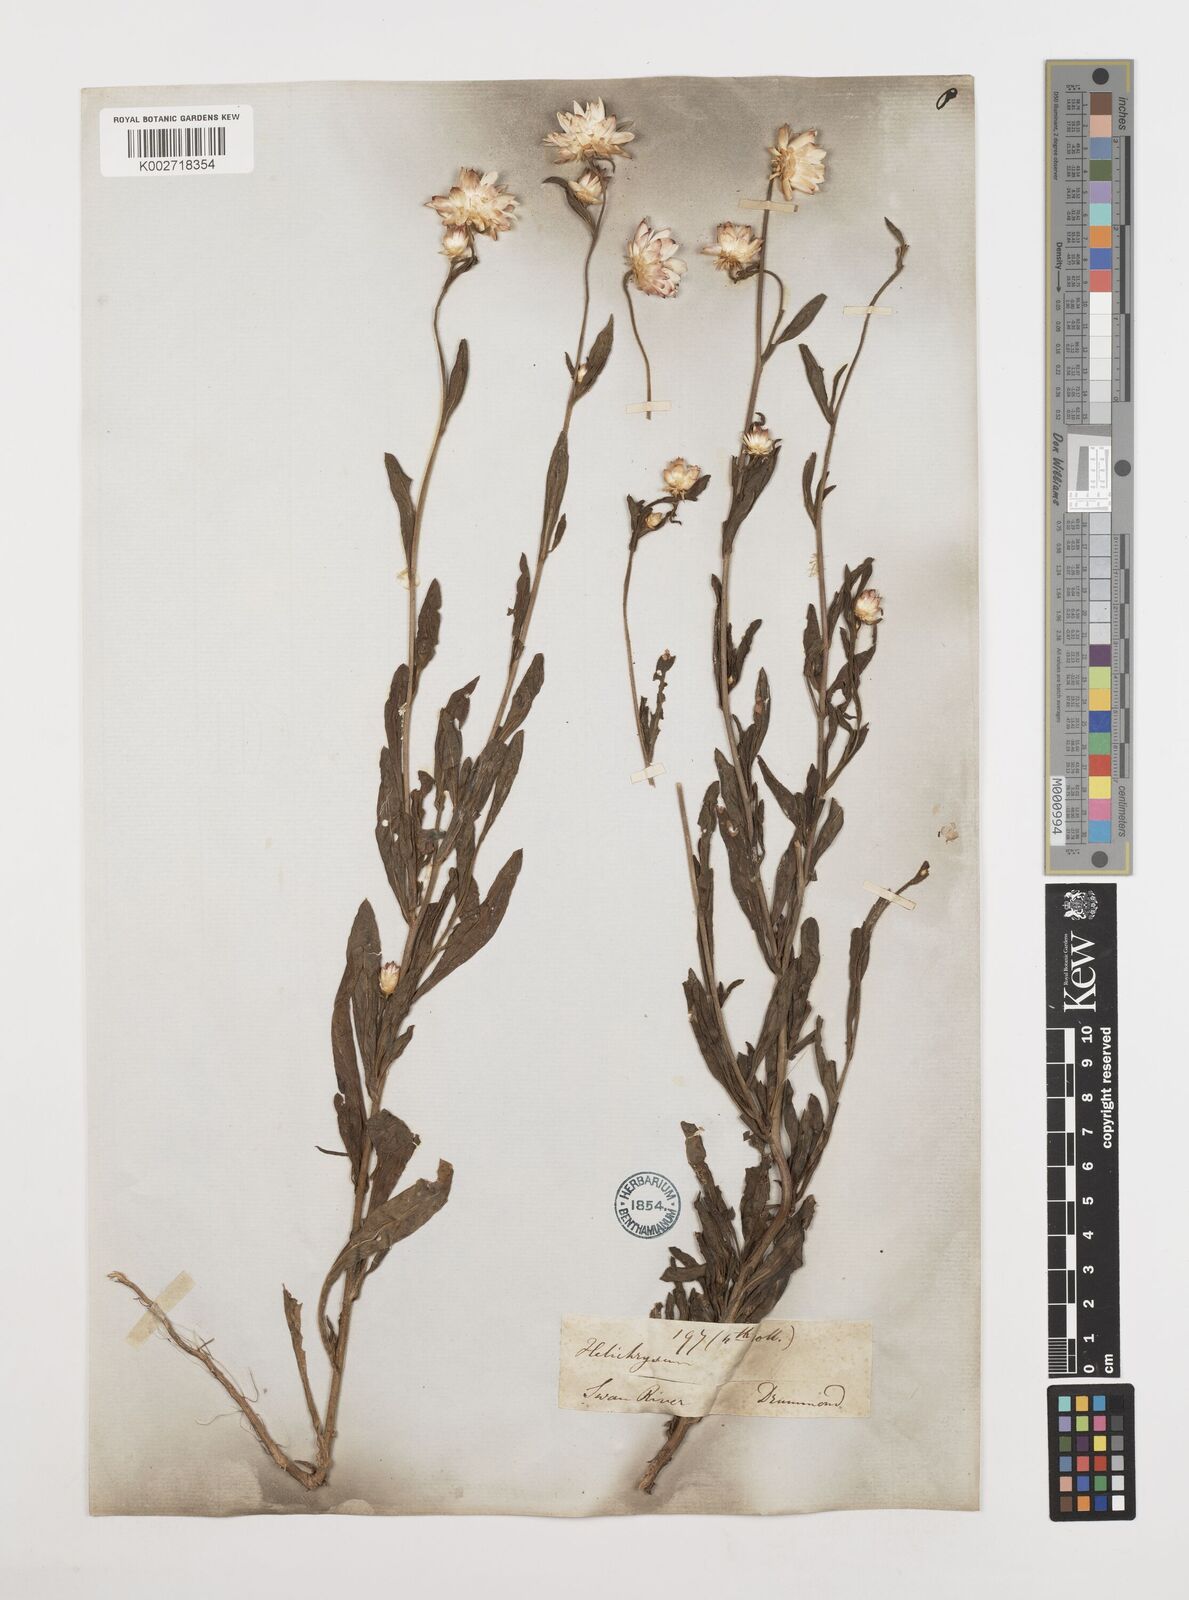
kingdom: Plantae
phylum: Tracheophyta
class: Magnoliopsida
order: Asterales
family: Asteraceae
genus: Xerochrysum
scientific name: Xerochrysum bracteatum
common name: Bracted strawflower
